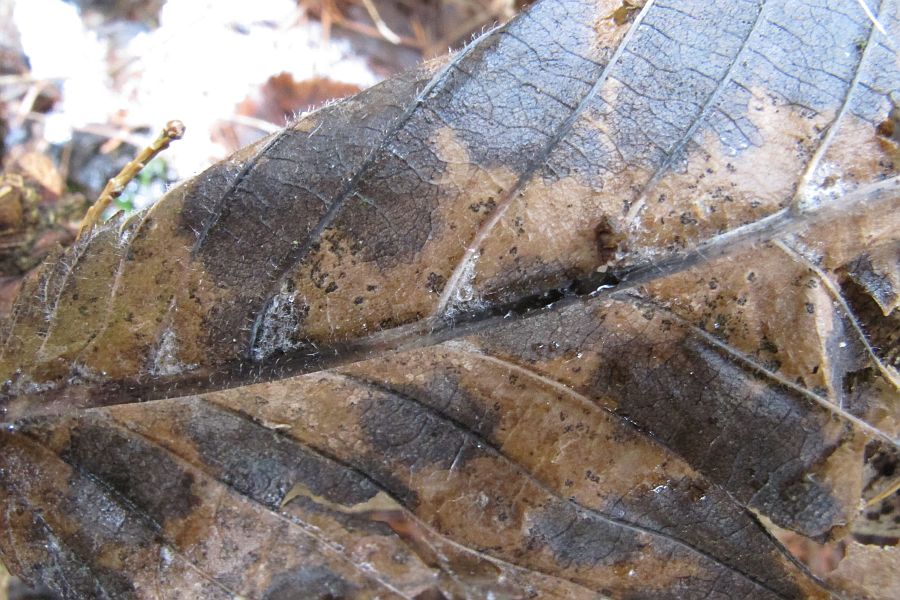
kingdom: Fungi
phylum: Ascomycota
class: Dothideomycetes
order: Mycosphaerellales
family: Mycosphaerellaceae
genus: Mycosphaerella
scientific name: Mycosphaerella punctiformis
